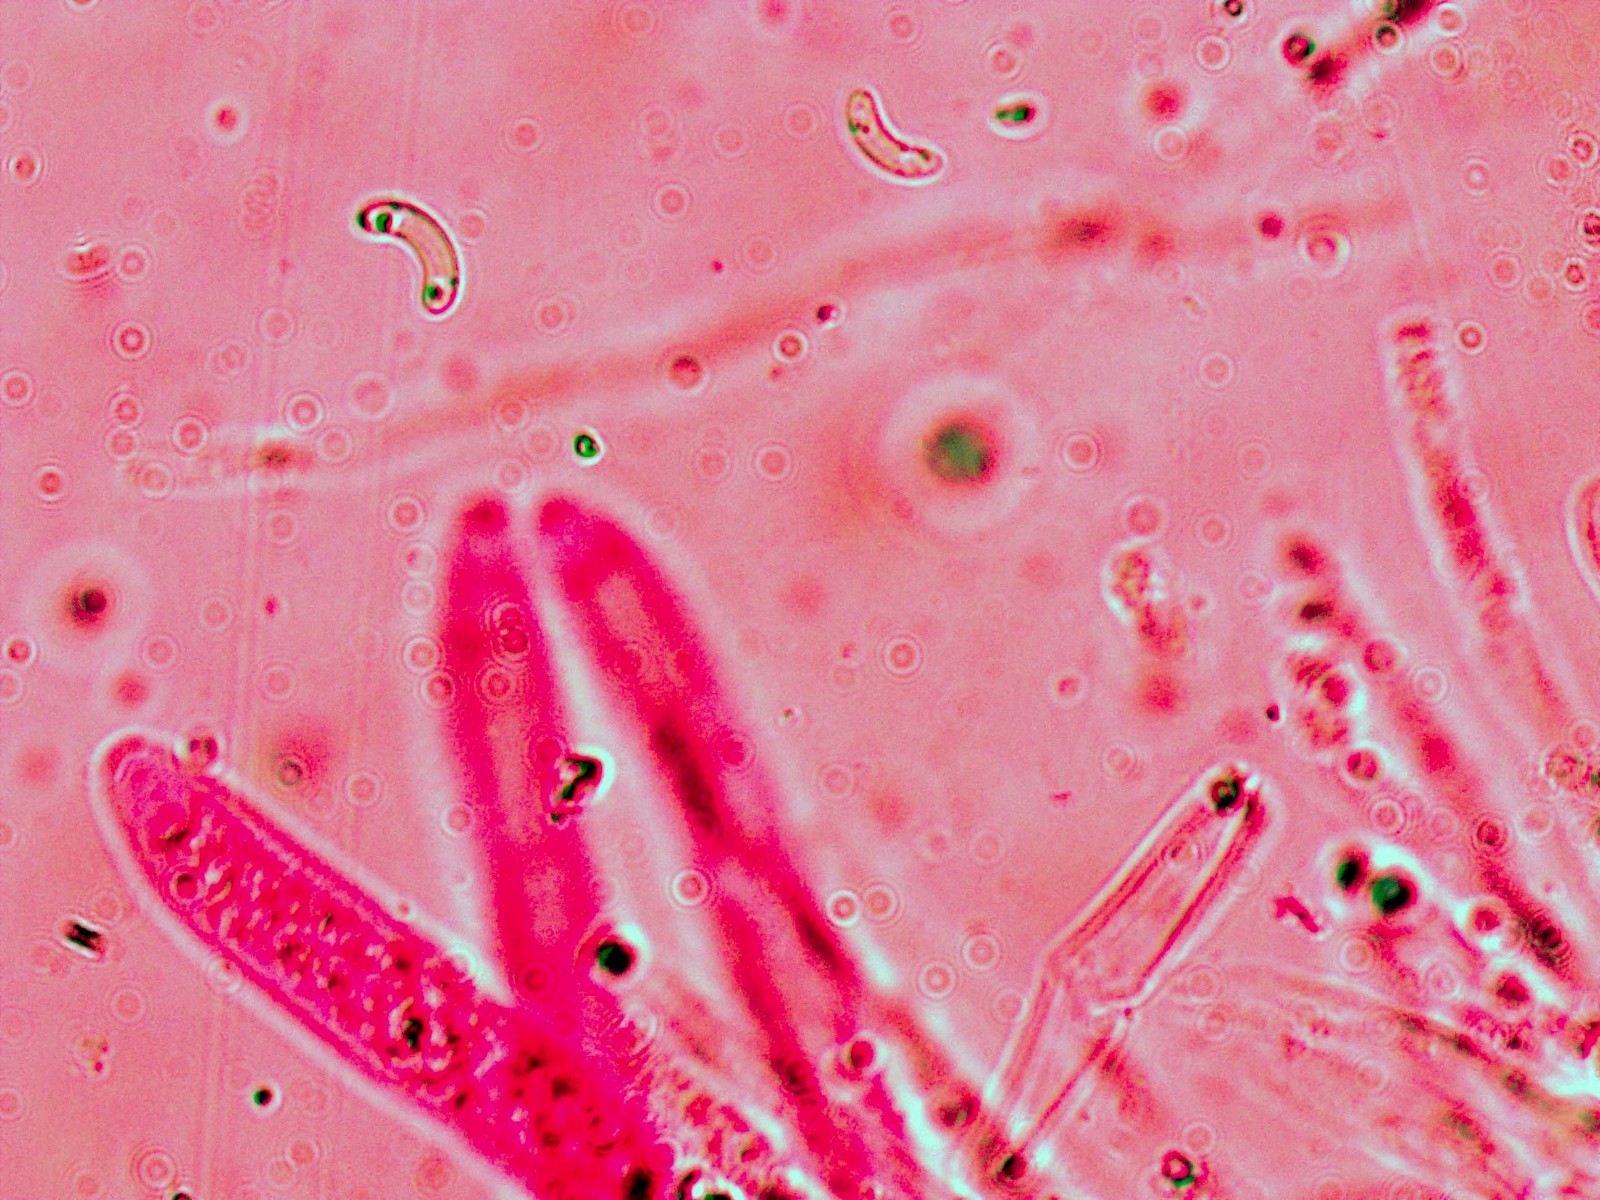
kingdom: Fungi
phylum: Ascomycota
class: Sordariomycetes
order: Xylariales
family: Diatrypaceae
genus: Diatrypella
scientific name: Diatrypella quercina
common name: ege-kulskorpe
